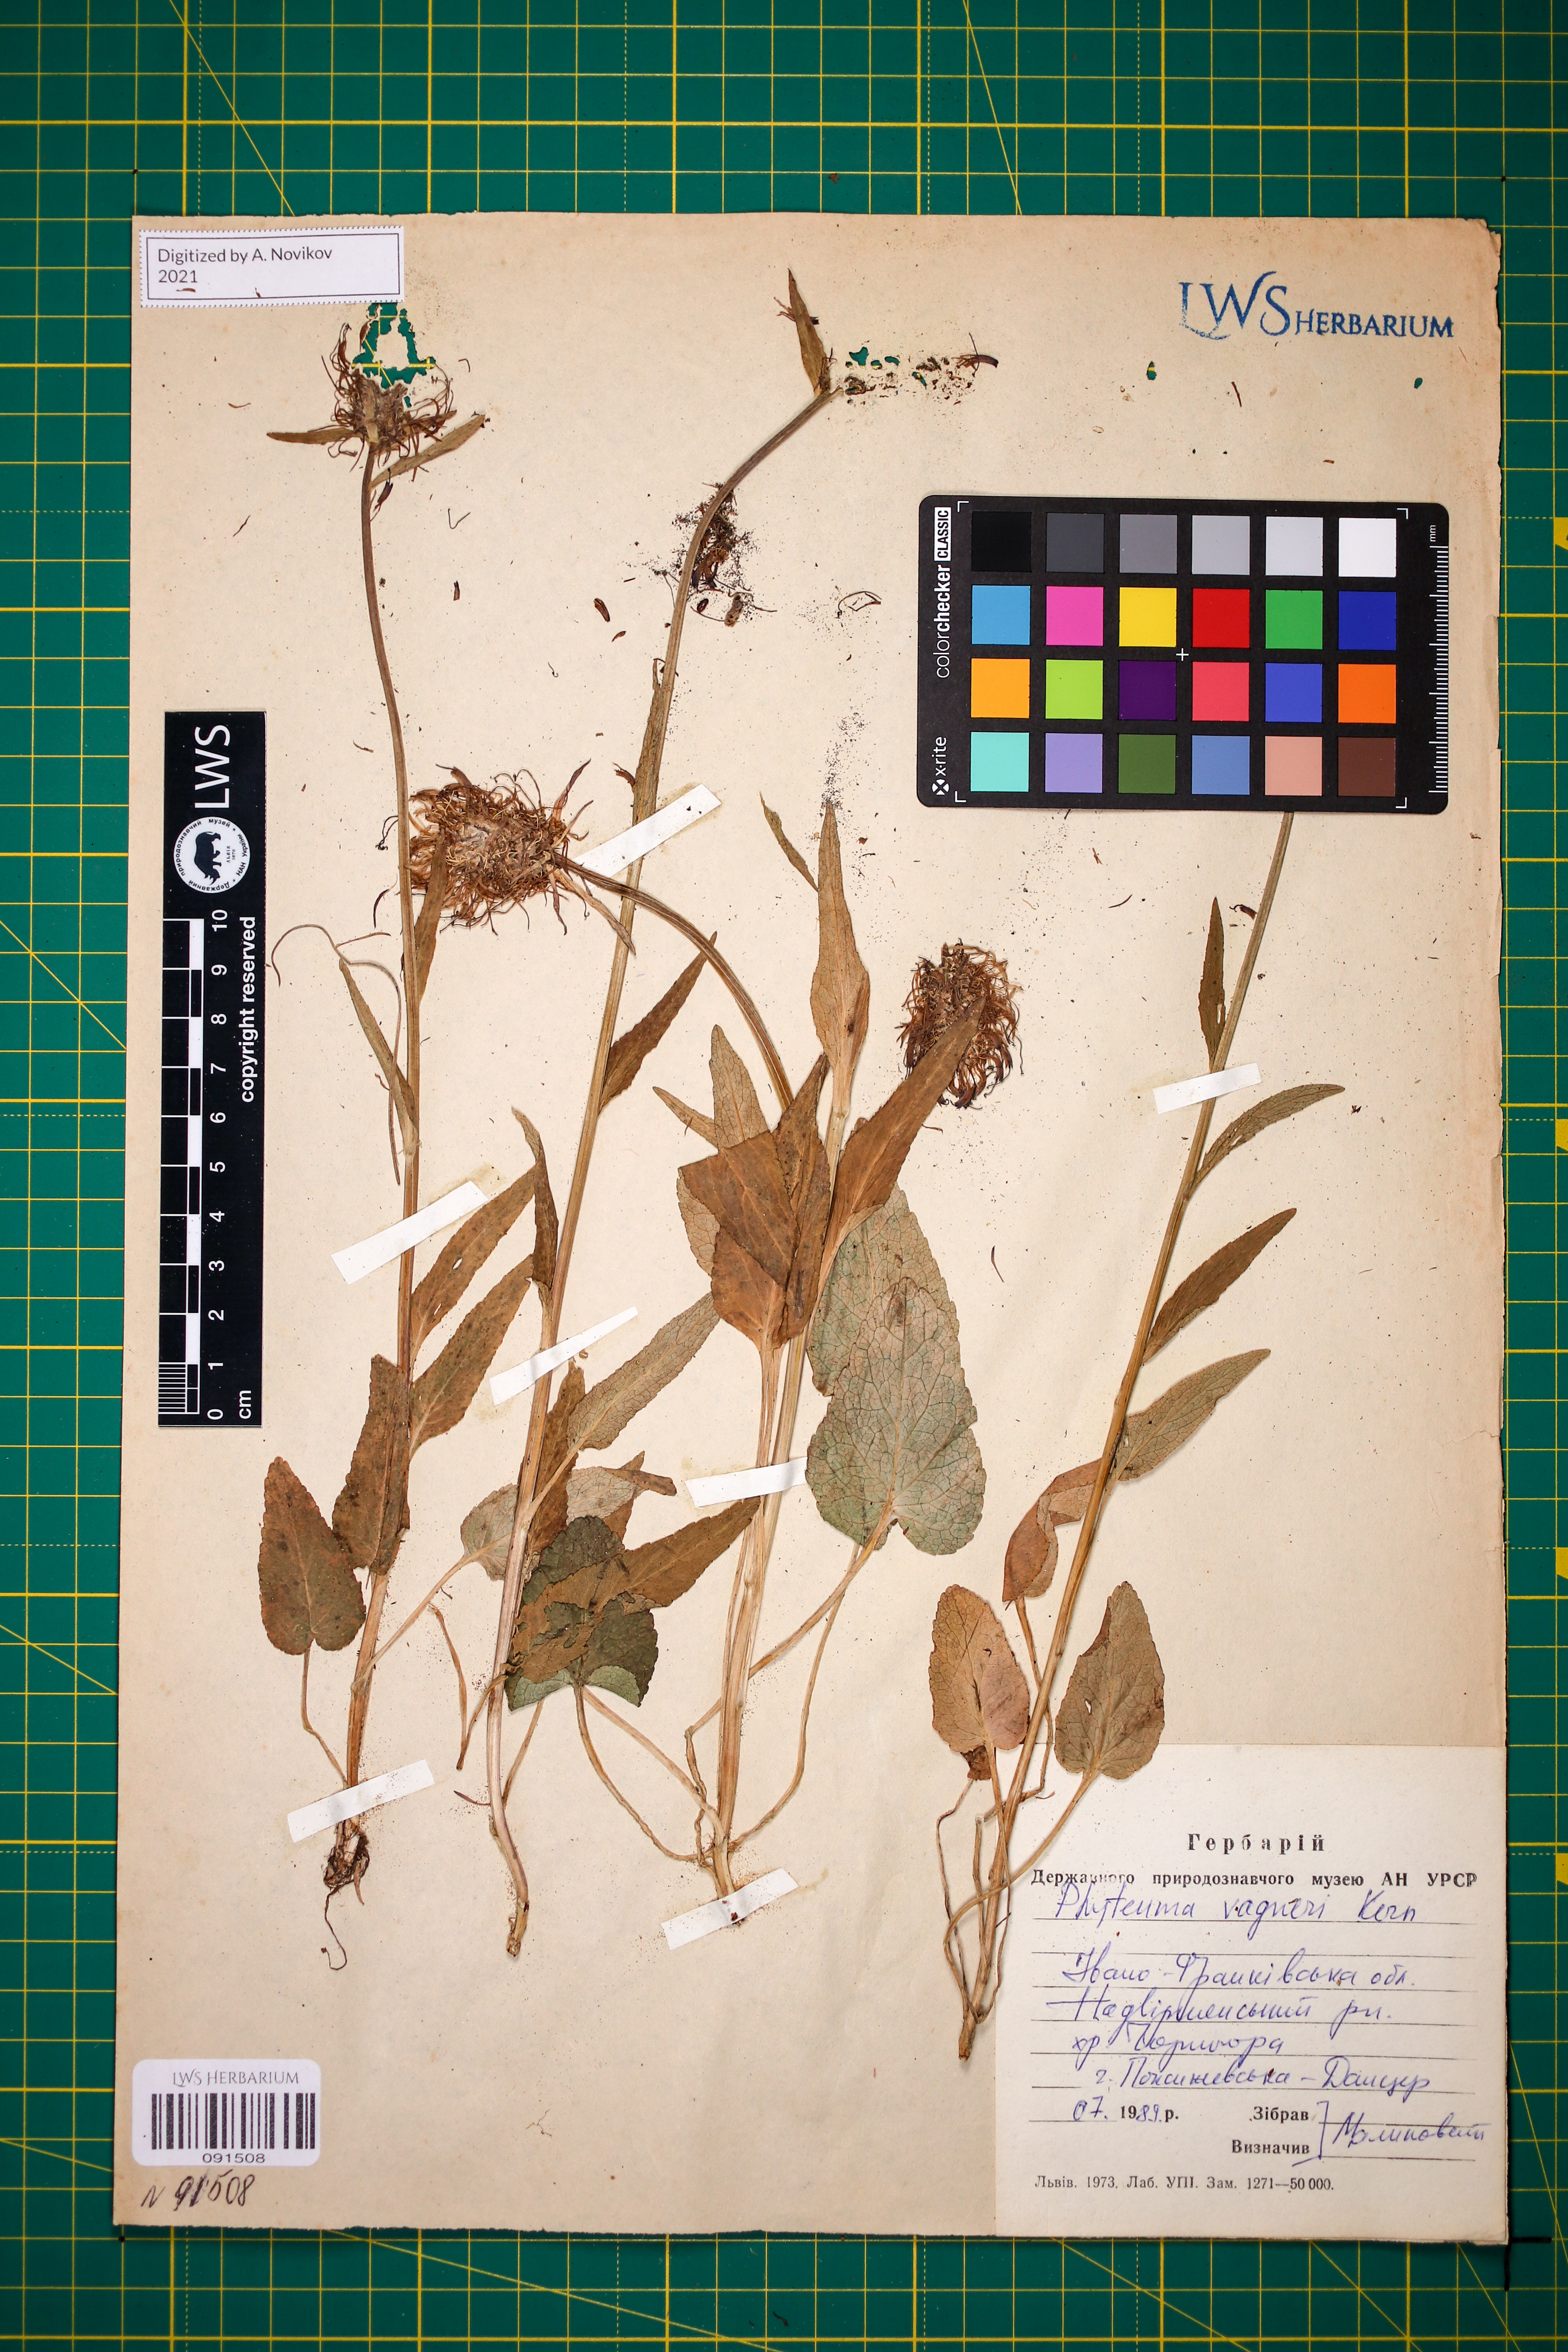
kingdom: Plantae
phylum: Tracheophyta
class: Magnoliopsida
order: Asterales
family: Campanulaceae
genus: Phyteuma
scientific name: Phyteuma vagneri
